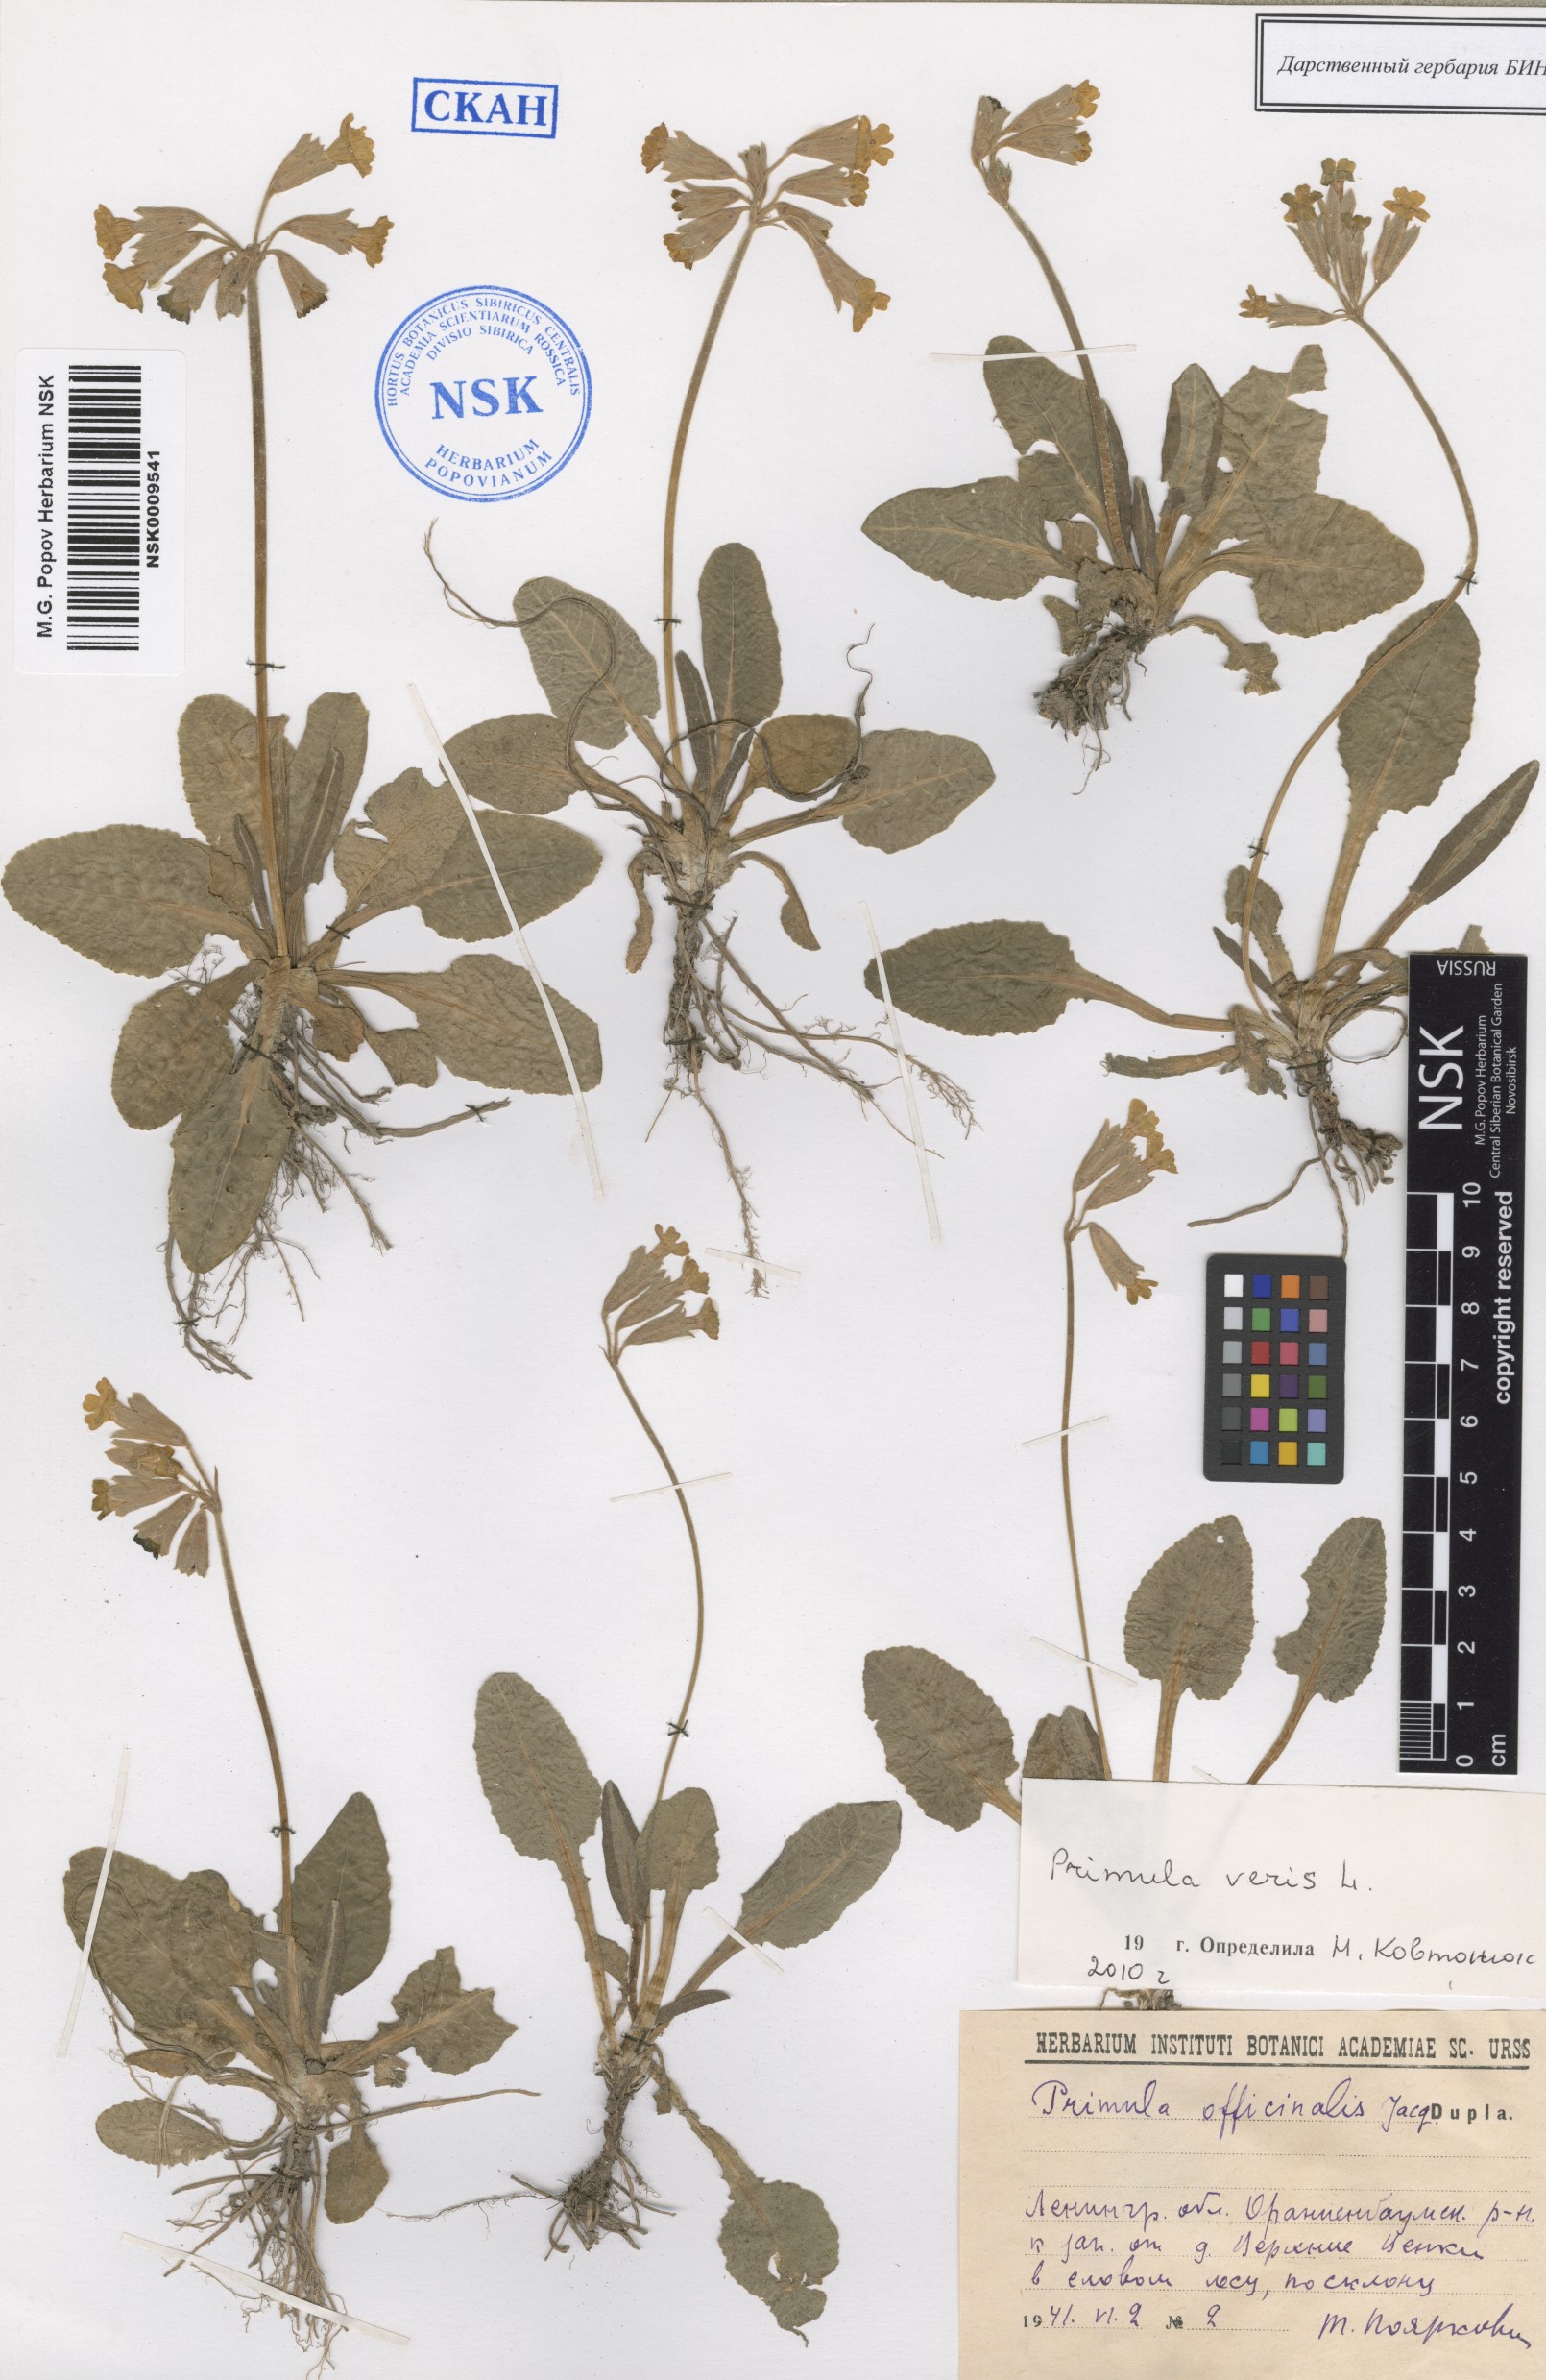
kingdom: Plantae
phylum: Tracheophyta
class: Magnoliopsida
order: Ericales
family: Primulaceae
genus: Primula
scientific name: Primula veris
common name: Cowslip
